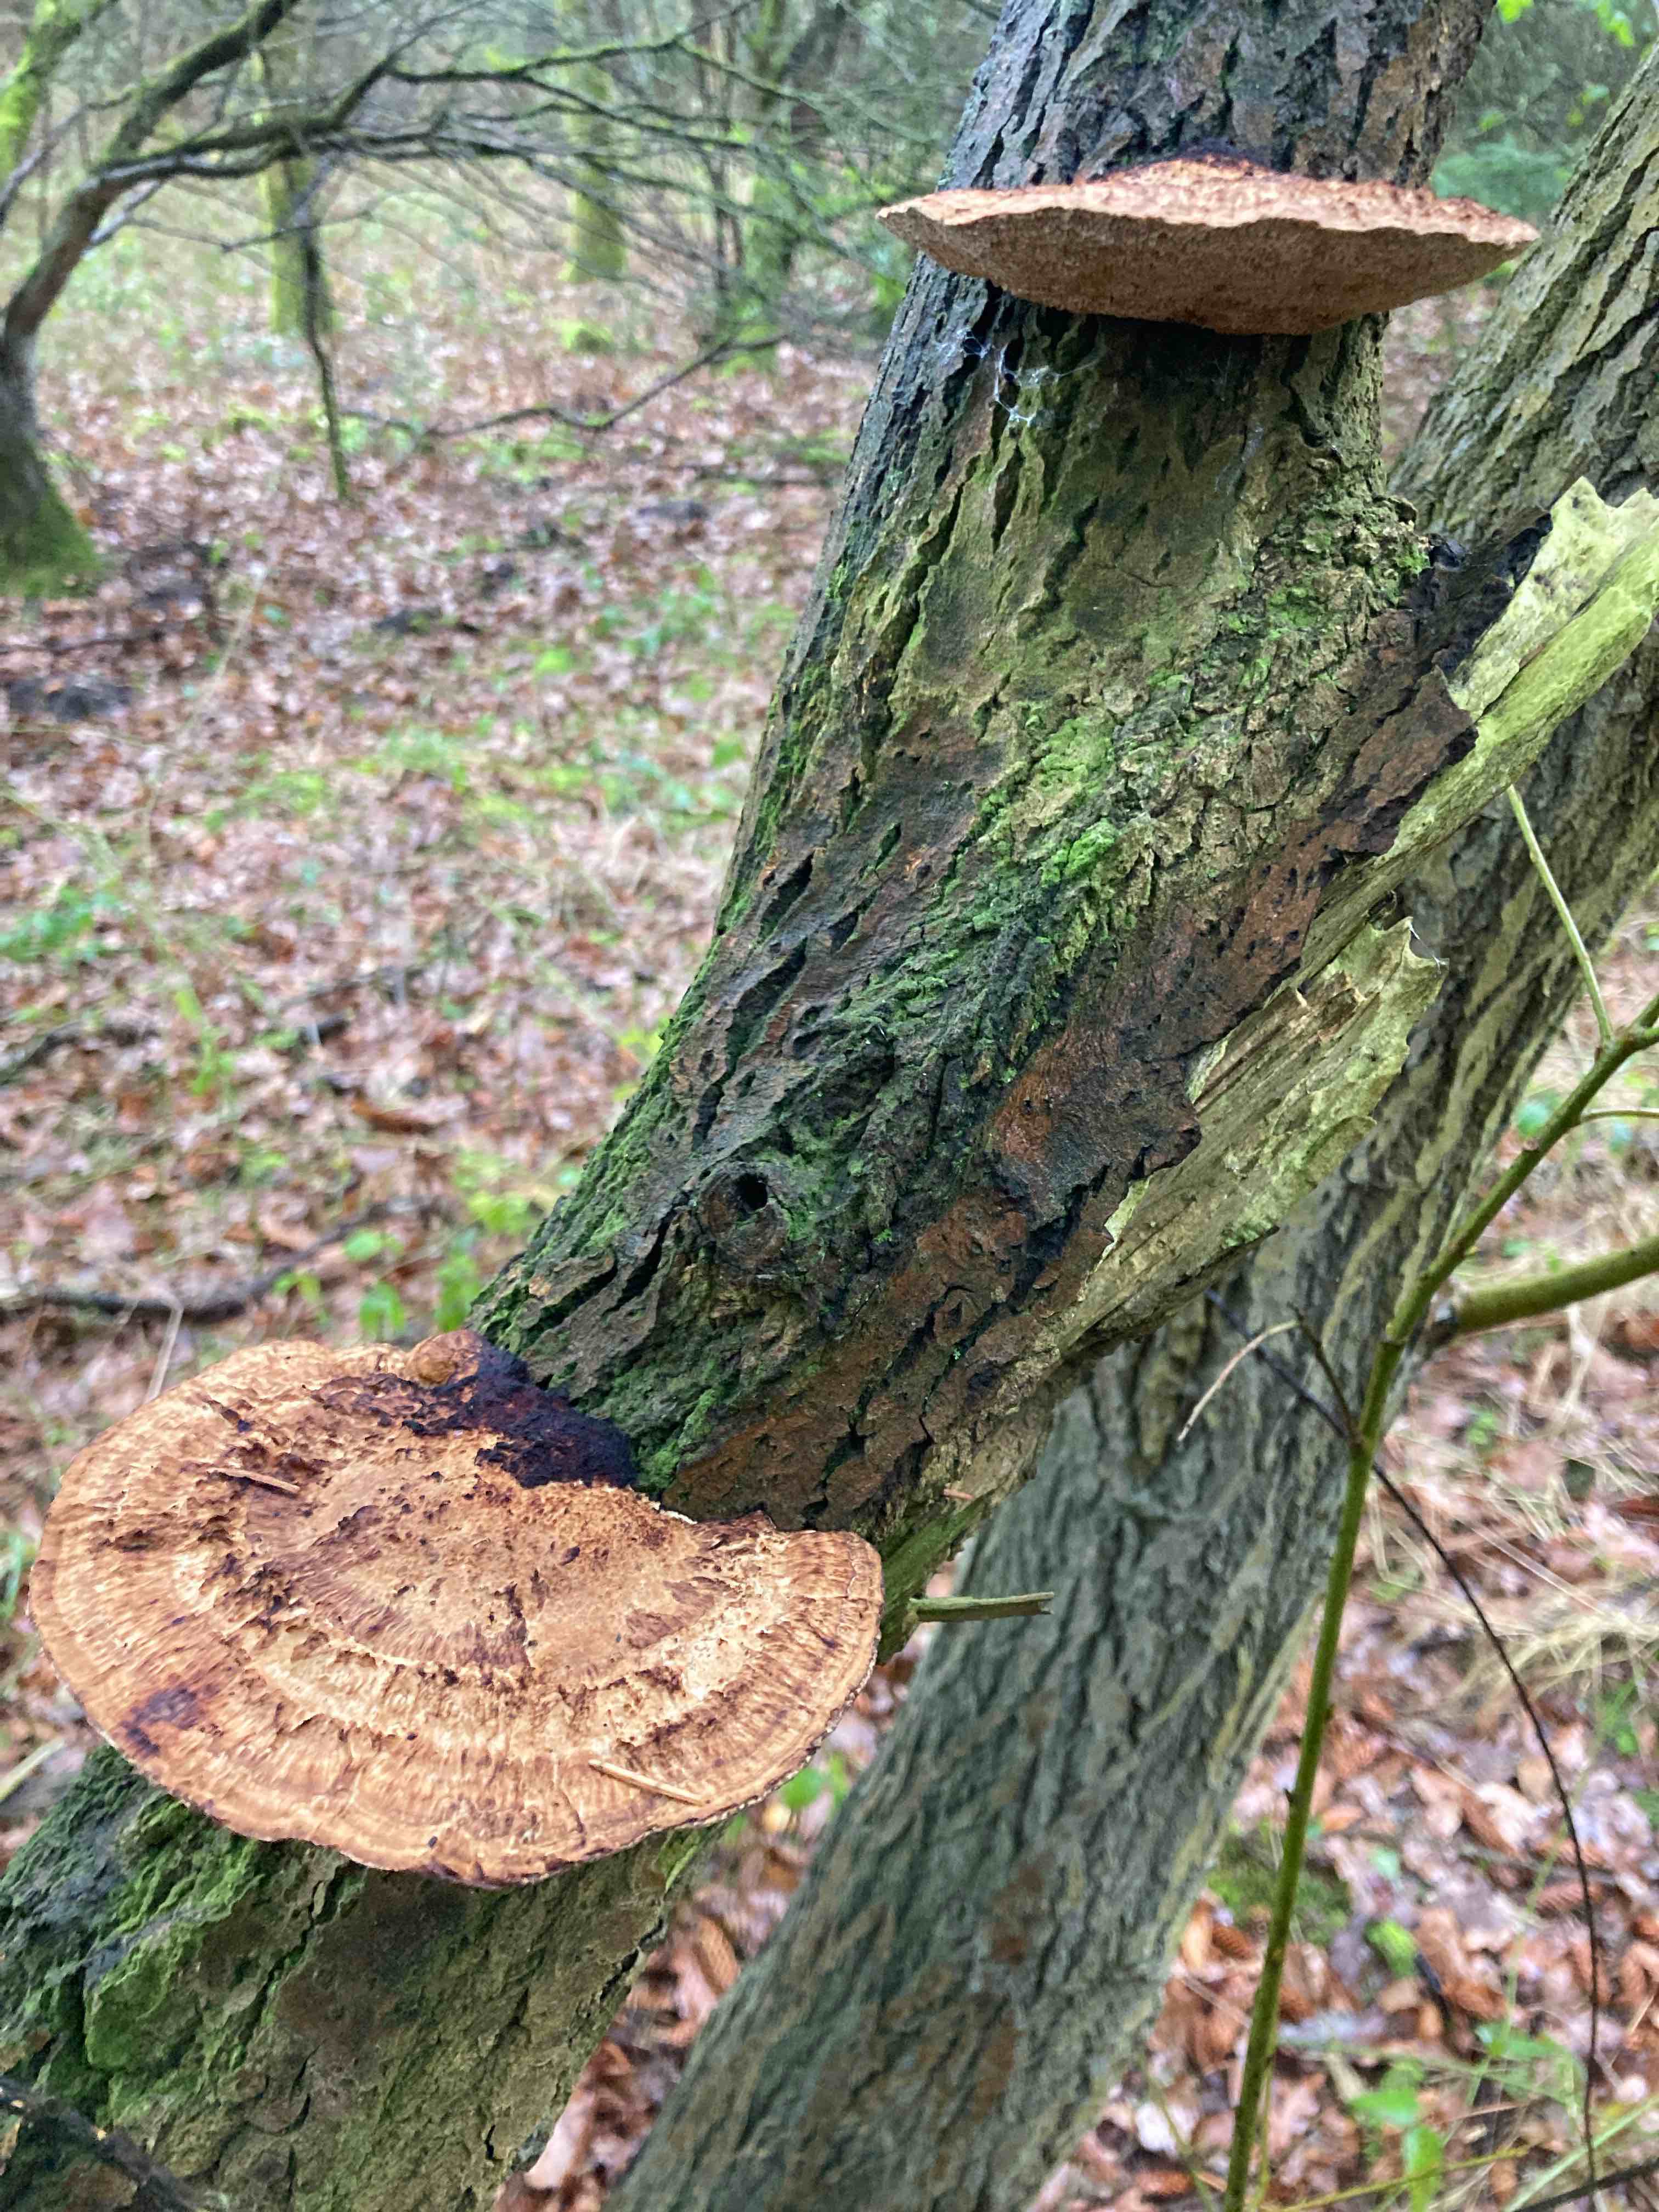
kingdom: Fungi
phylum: Basidiomycota
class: Agaricomycetes
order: Polyporales
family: Polyporaceae
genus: Daedaleopsis
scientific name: Daedaleopsis confragosa
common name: rødmende læderporesvamp
